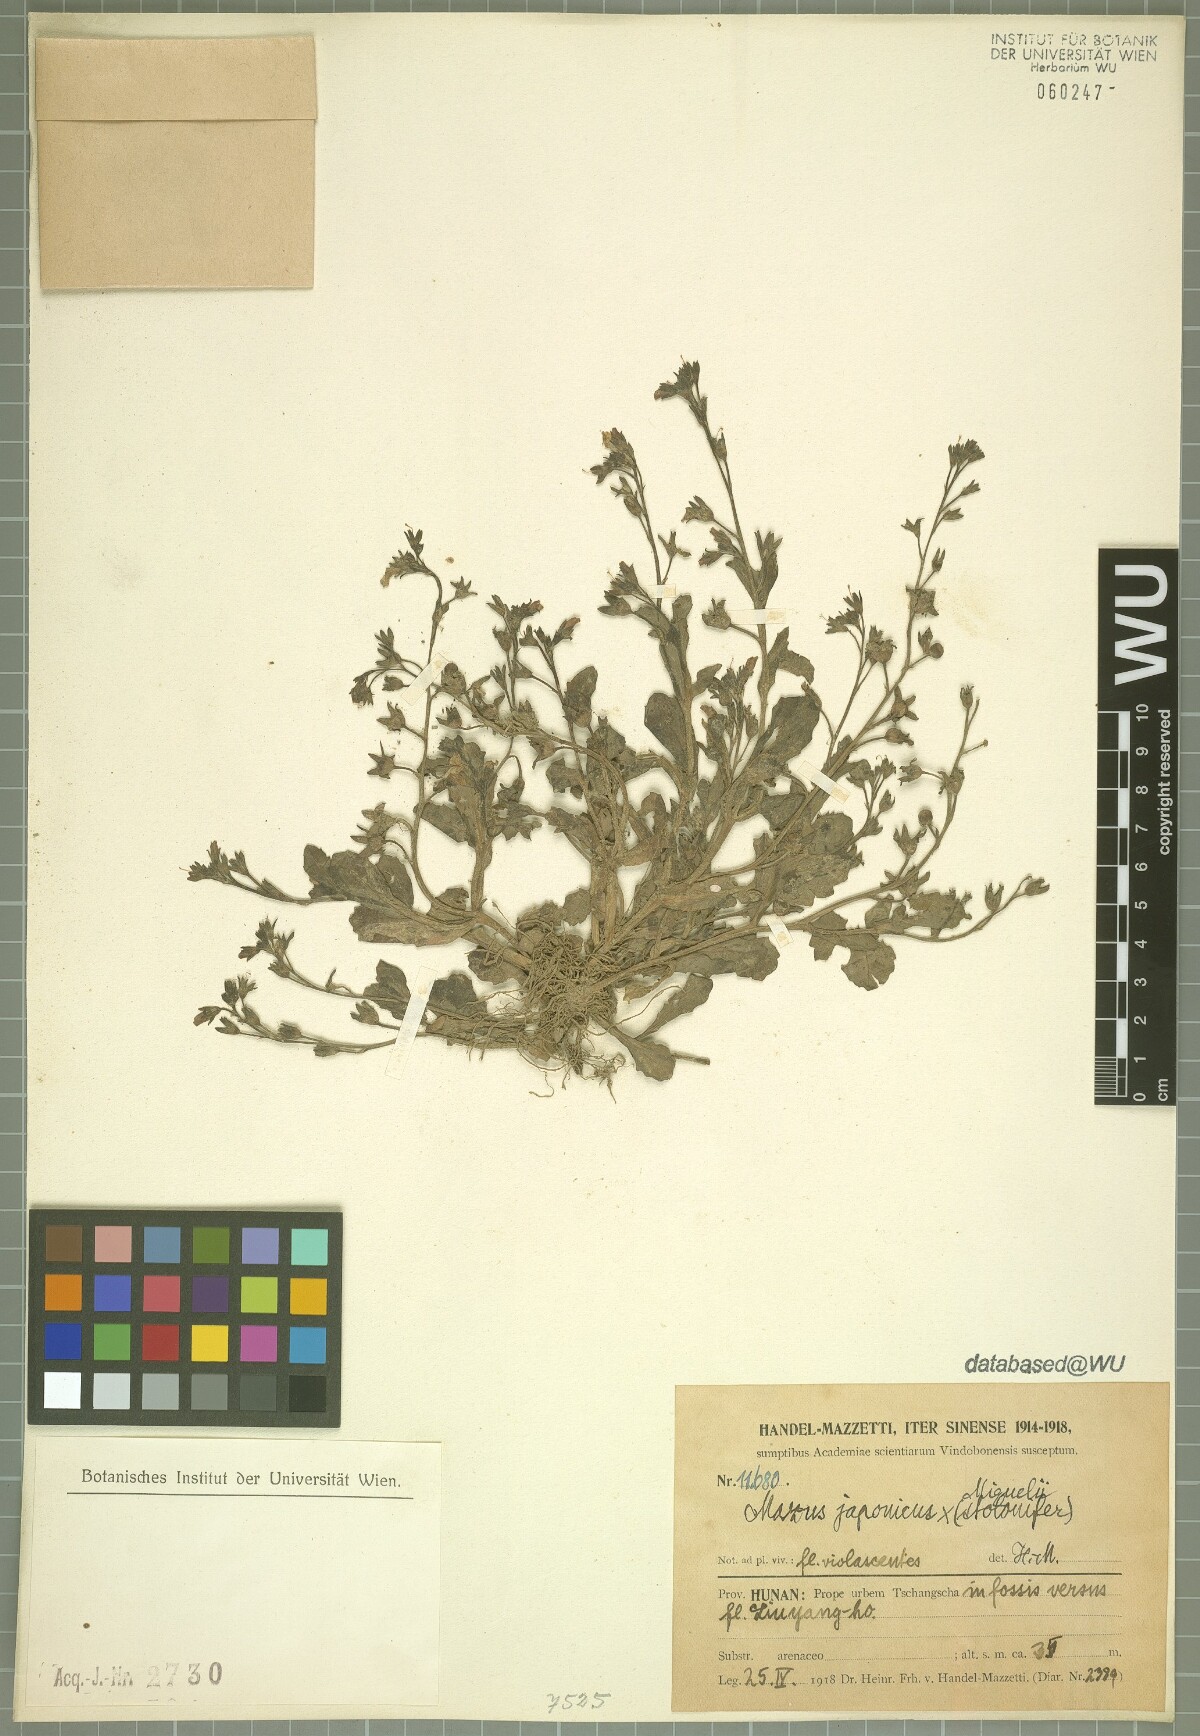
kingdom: Plantae
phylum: Tracheophyta
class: Magnoliopsida
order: Lamiales
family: Scrophulariaceae
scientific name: Scrophulariaceae
